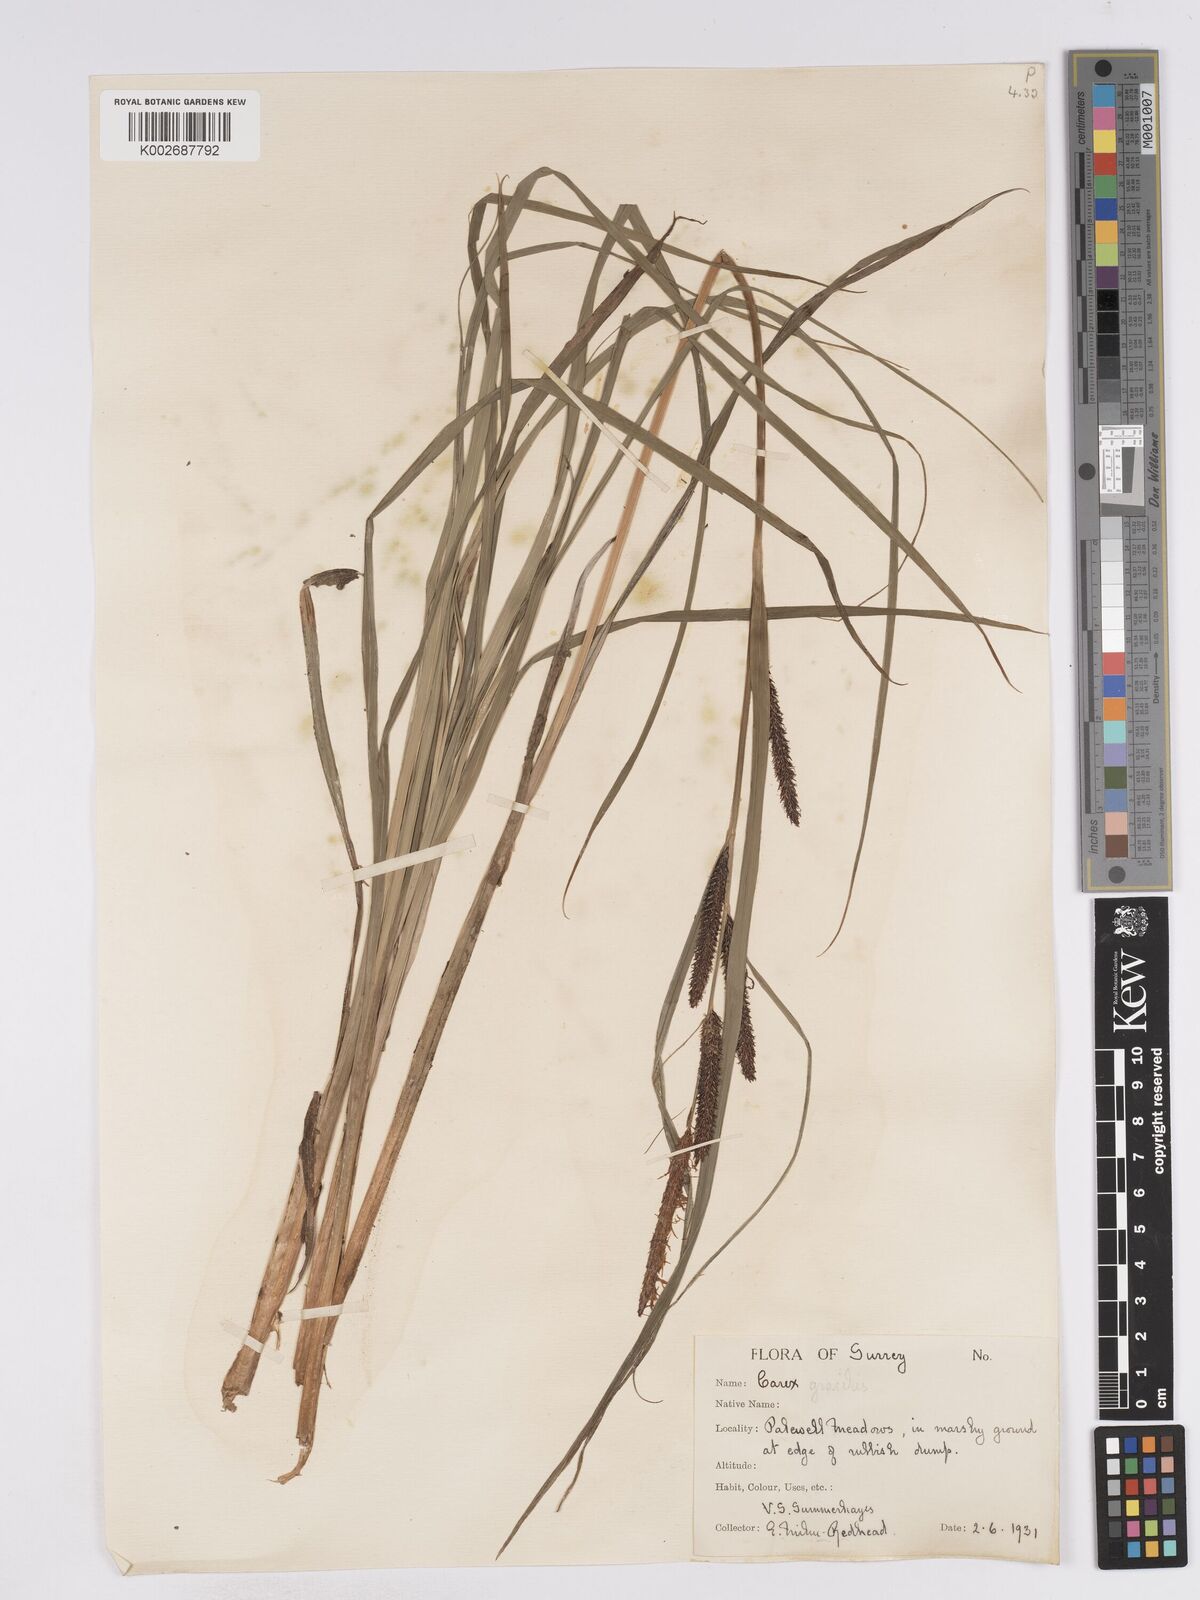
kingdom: Plantae
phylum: Tracheophyta
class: Liliopsida
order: Poales
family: Cyperaceae
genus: Carex
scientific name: Carex acuta
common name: Slender tufted-sedge
